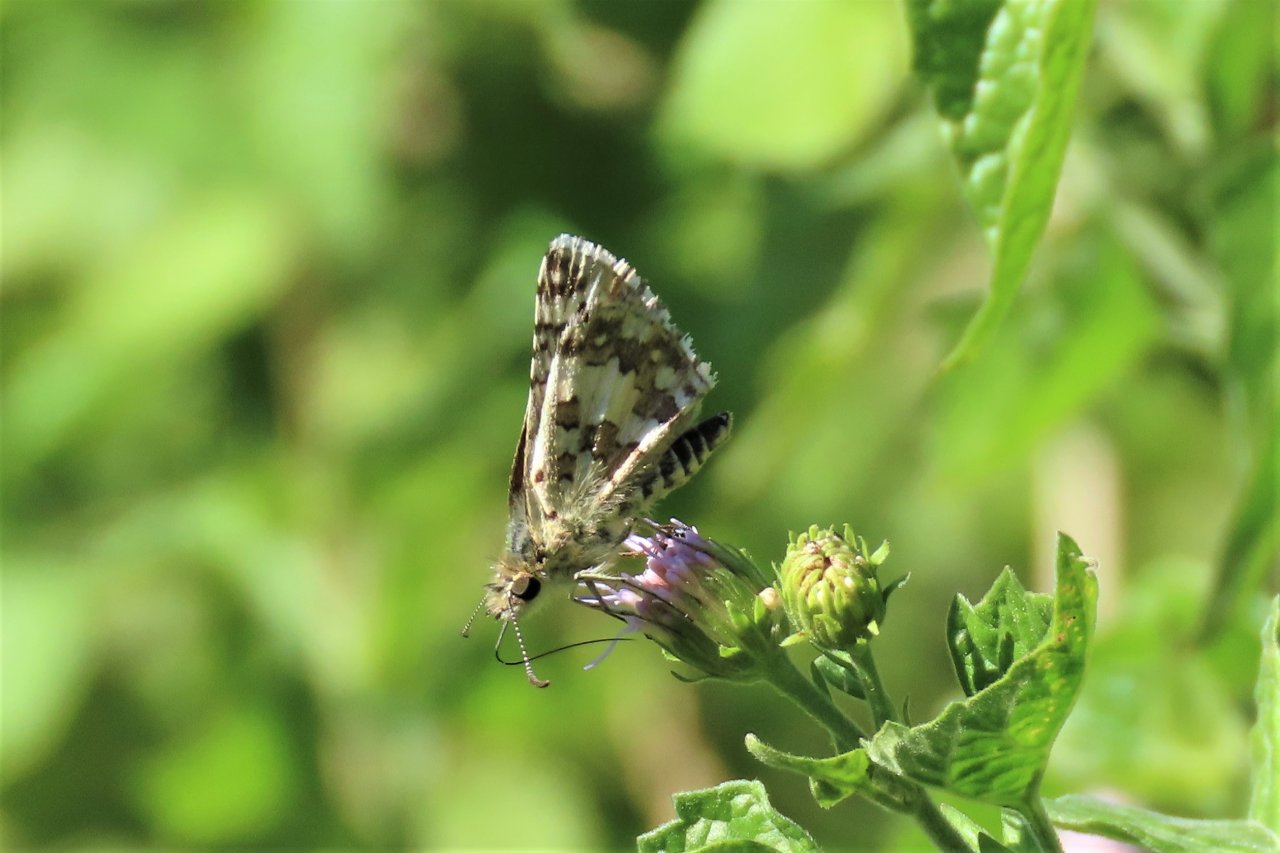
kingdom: Animalia
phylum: Arthropoda
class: Insecta
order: Lepidoptera
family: Hesperiidae
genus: Pyrgus
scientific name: Pyrgus communis
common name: White Checkered-Skipper
